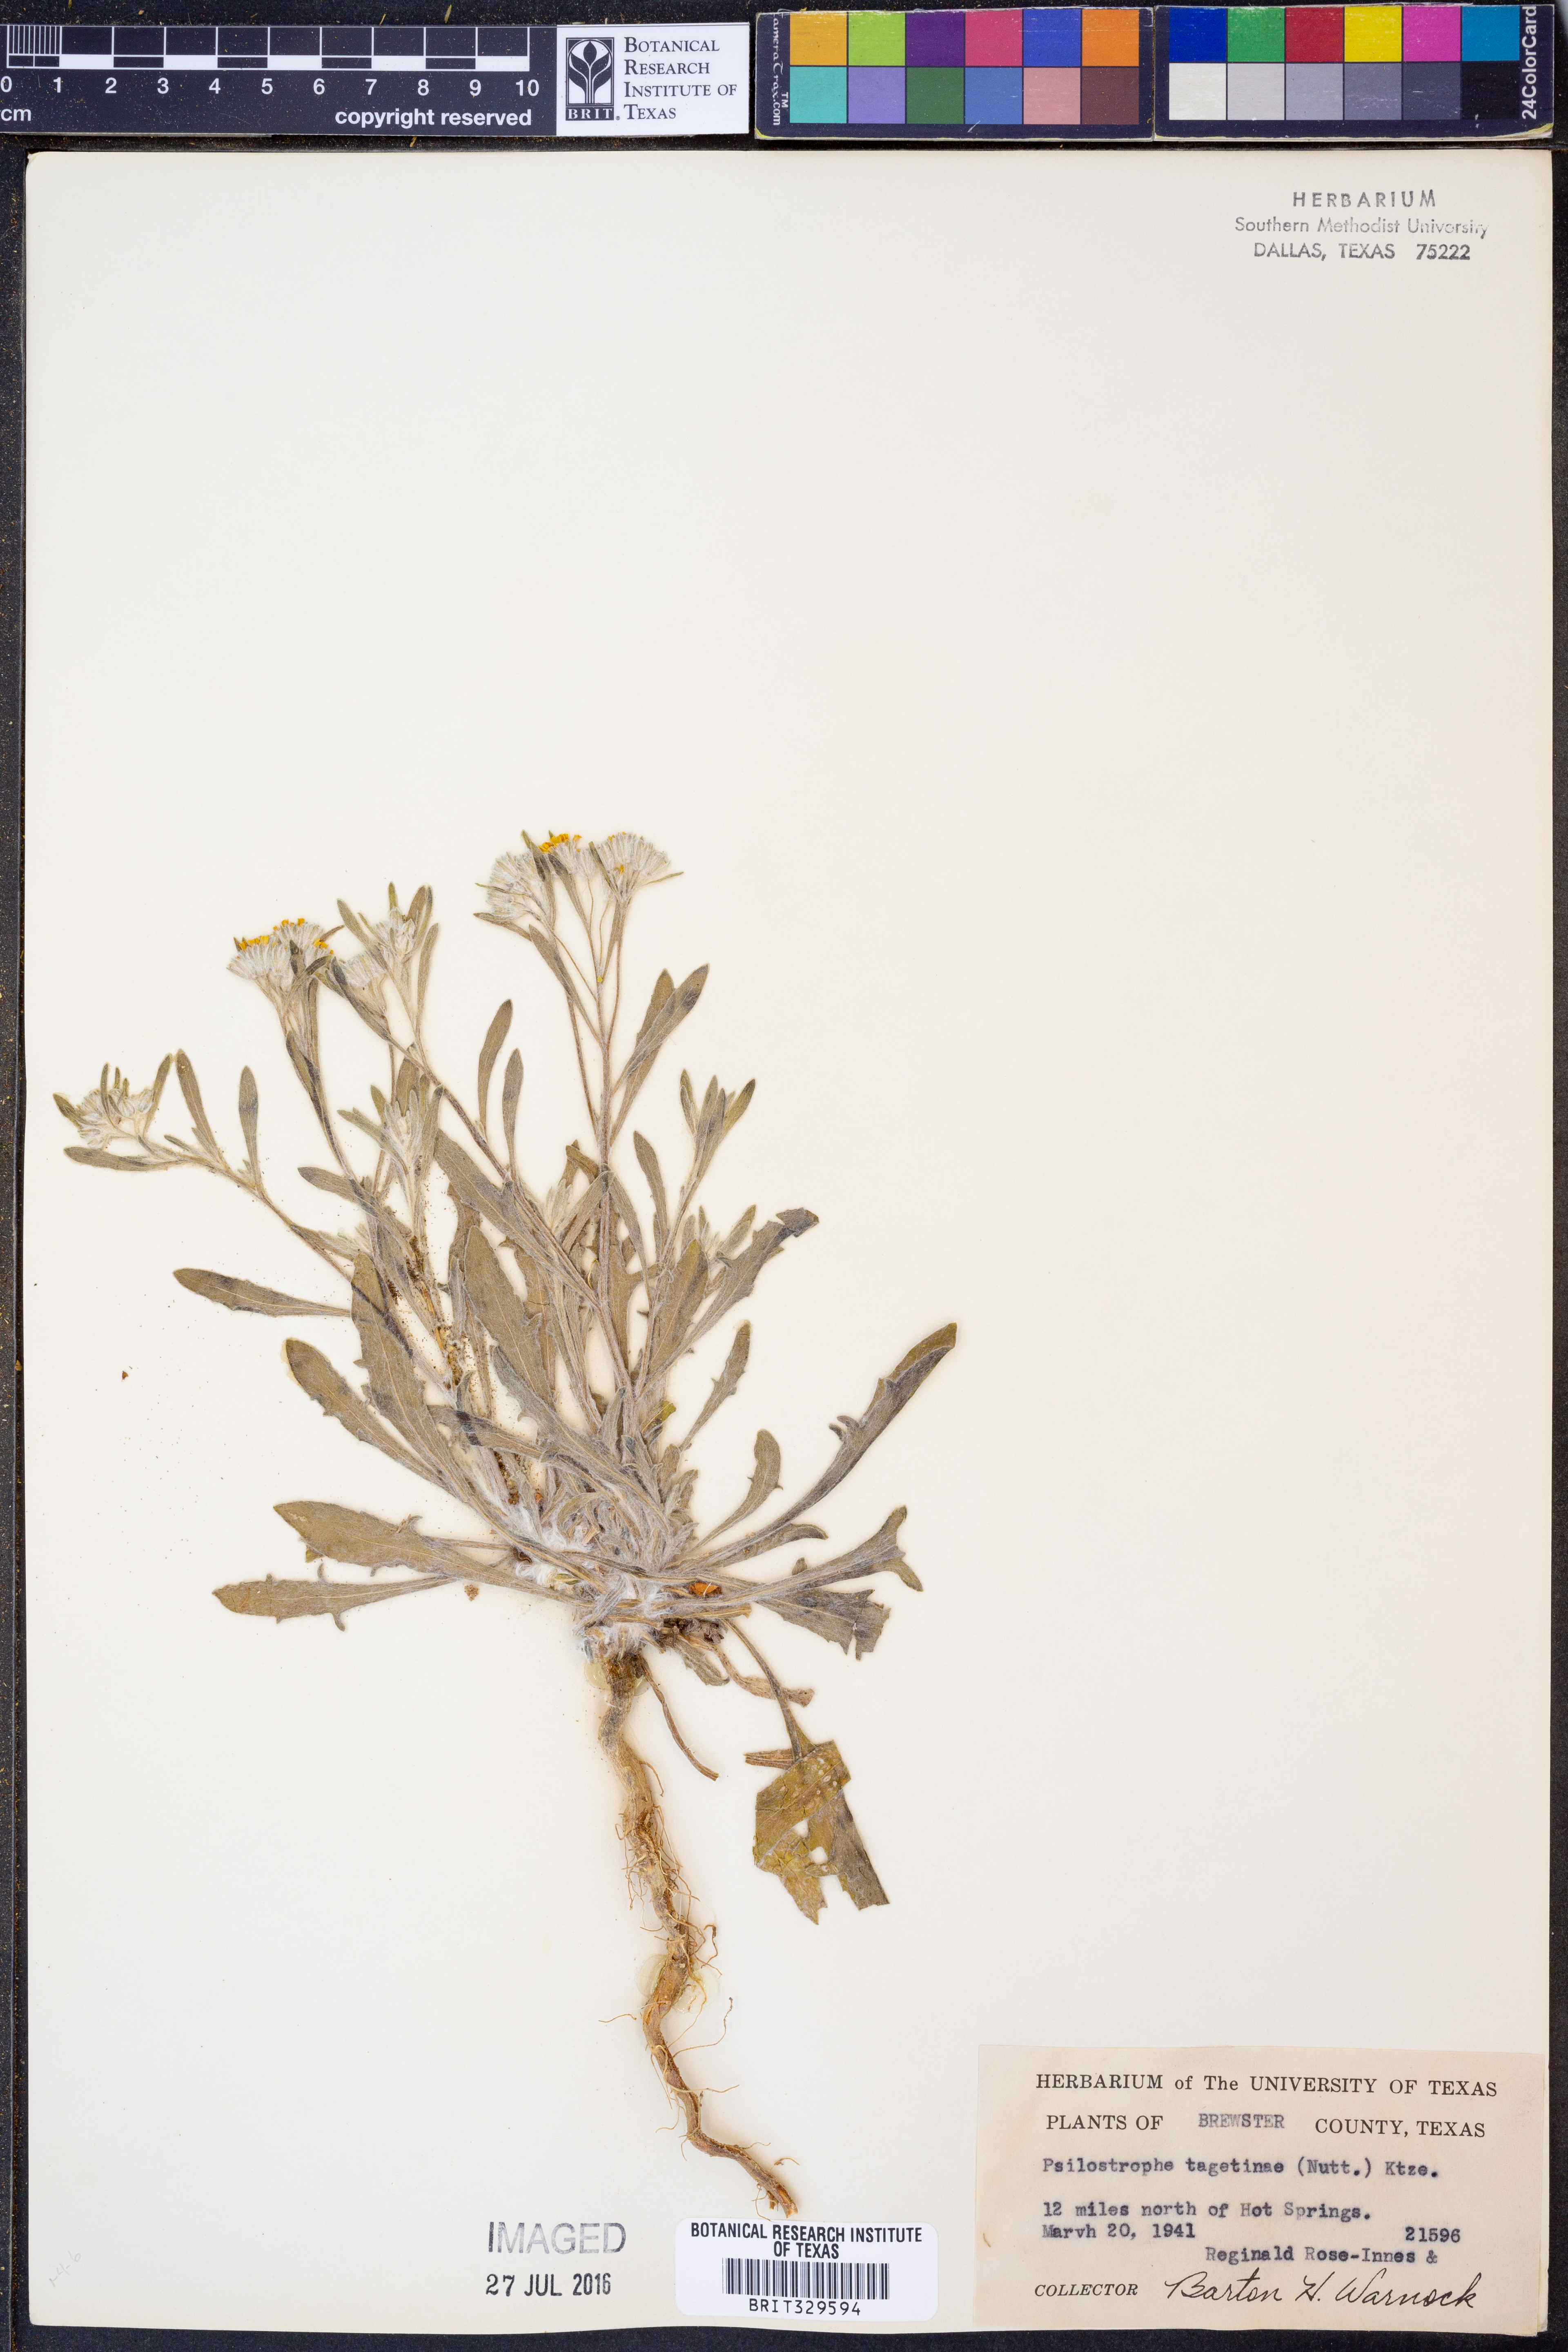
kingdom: Plantae
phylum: Tracheophyta
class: Magnoliopsida
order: Asterales
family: Asteraceae
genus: Psilostrophe
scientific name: Psilostrophe tagetina
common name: Marigold paper-flower
